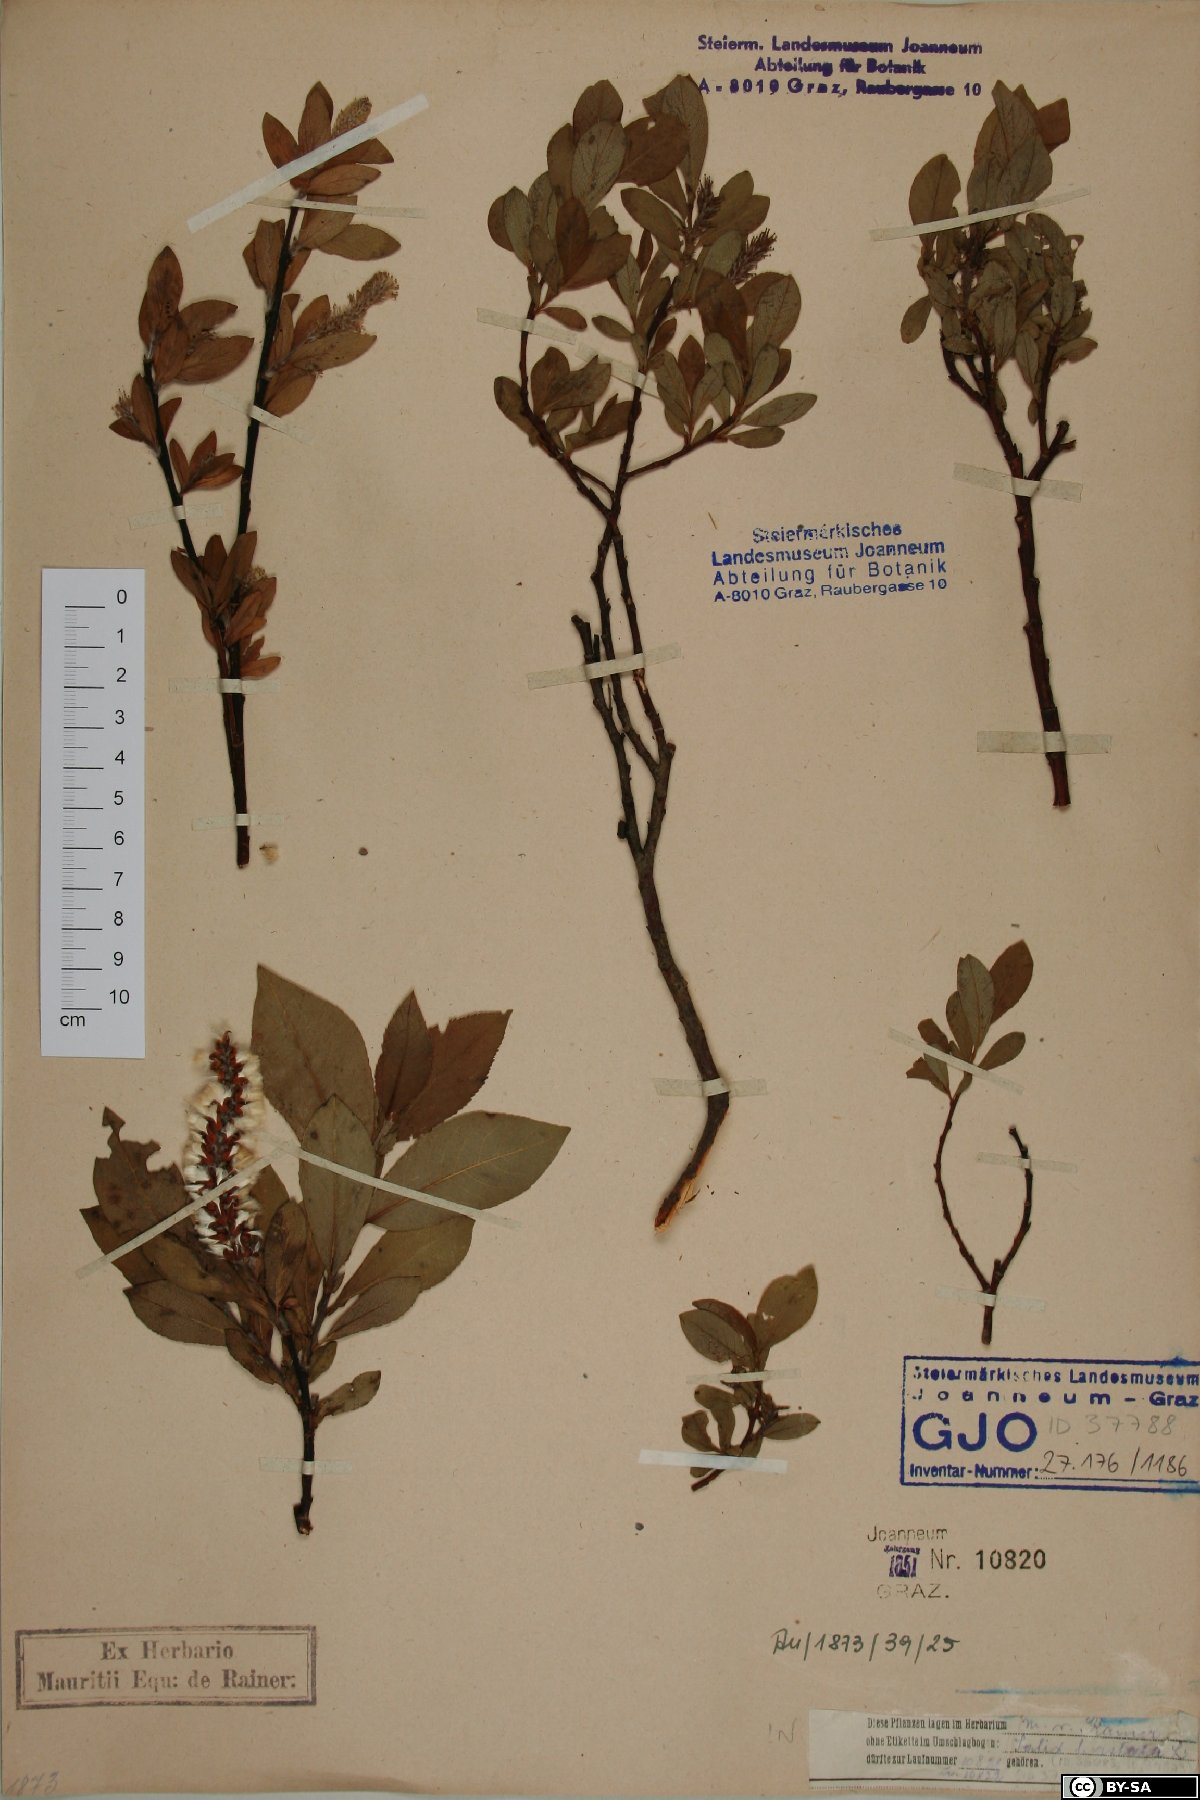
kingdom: Plantae
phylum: Tracheophyta
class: Magnoliopsida
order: Malpighiales
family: Salicaceae
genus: Salix
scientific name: Salix hastata
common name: Halberd willow
